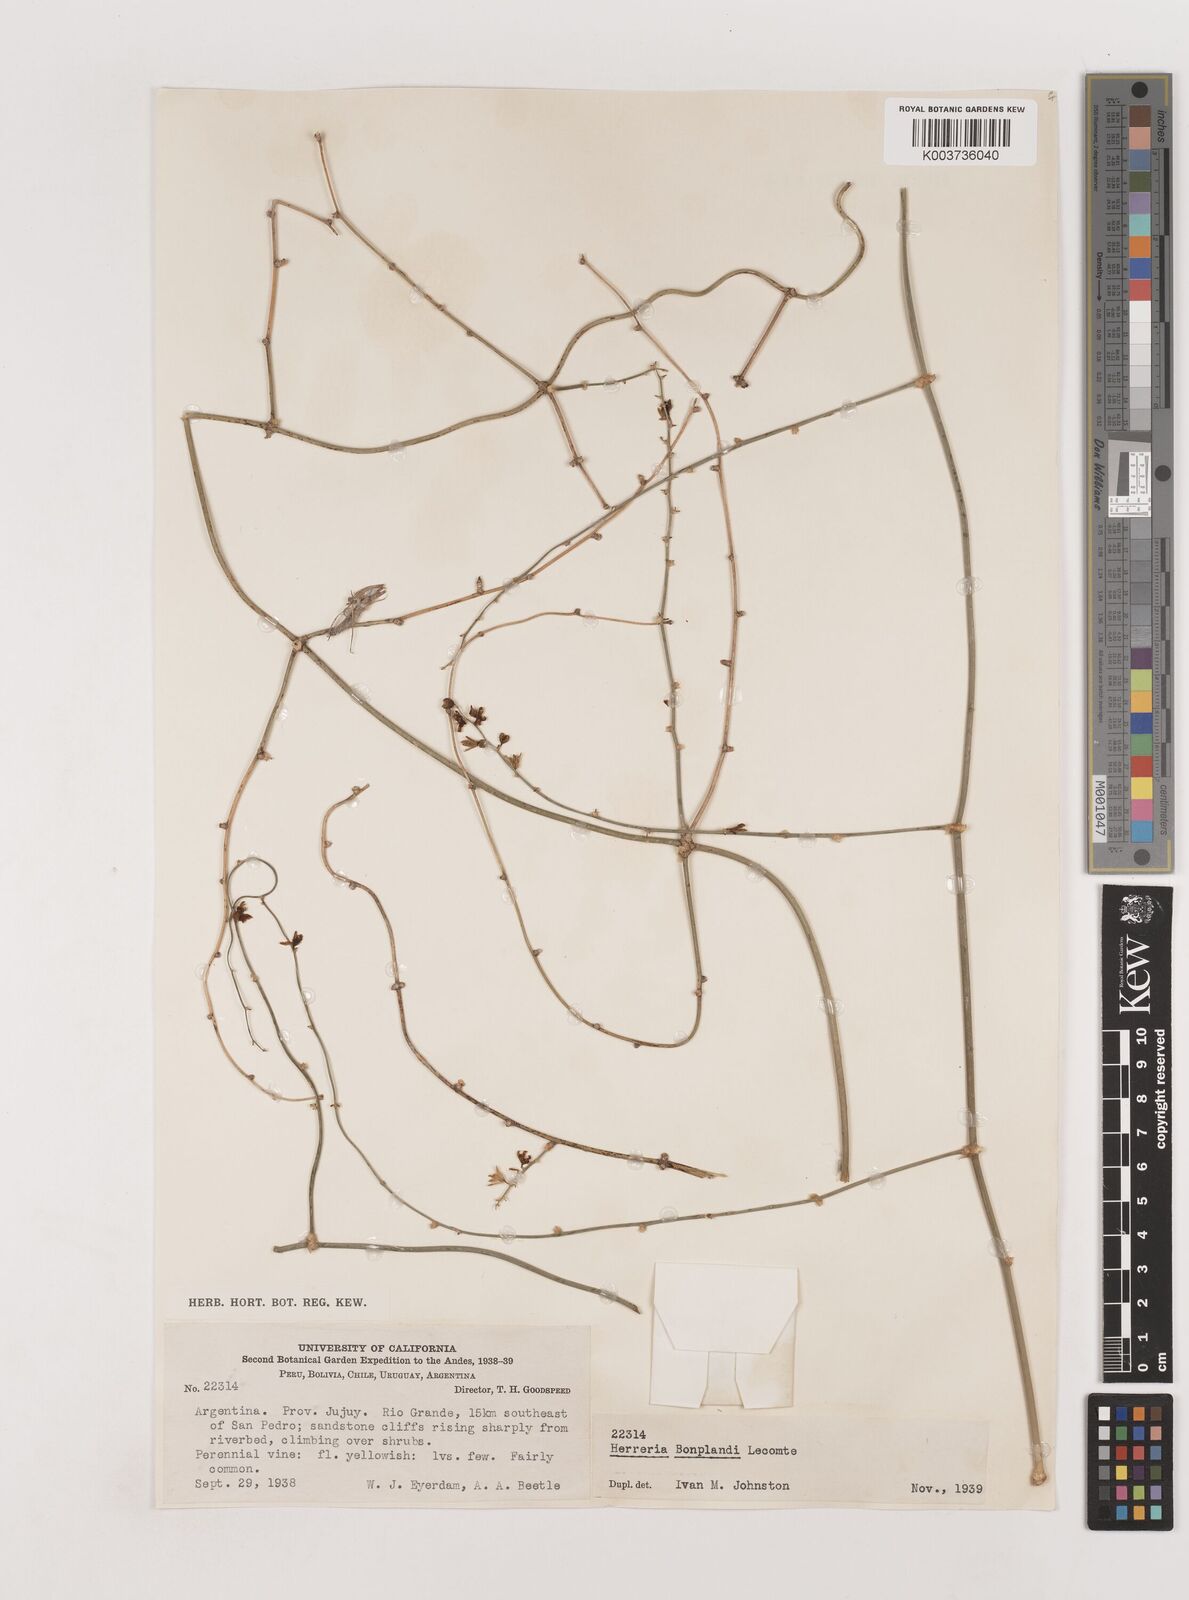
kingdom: Plantae
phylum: Tracheophyta
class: Liliopsida
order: Asparagales
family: Asparagaceae
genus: Herreria
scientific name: Herreria montevidensis
